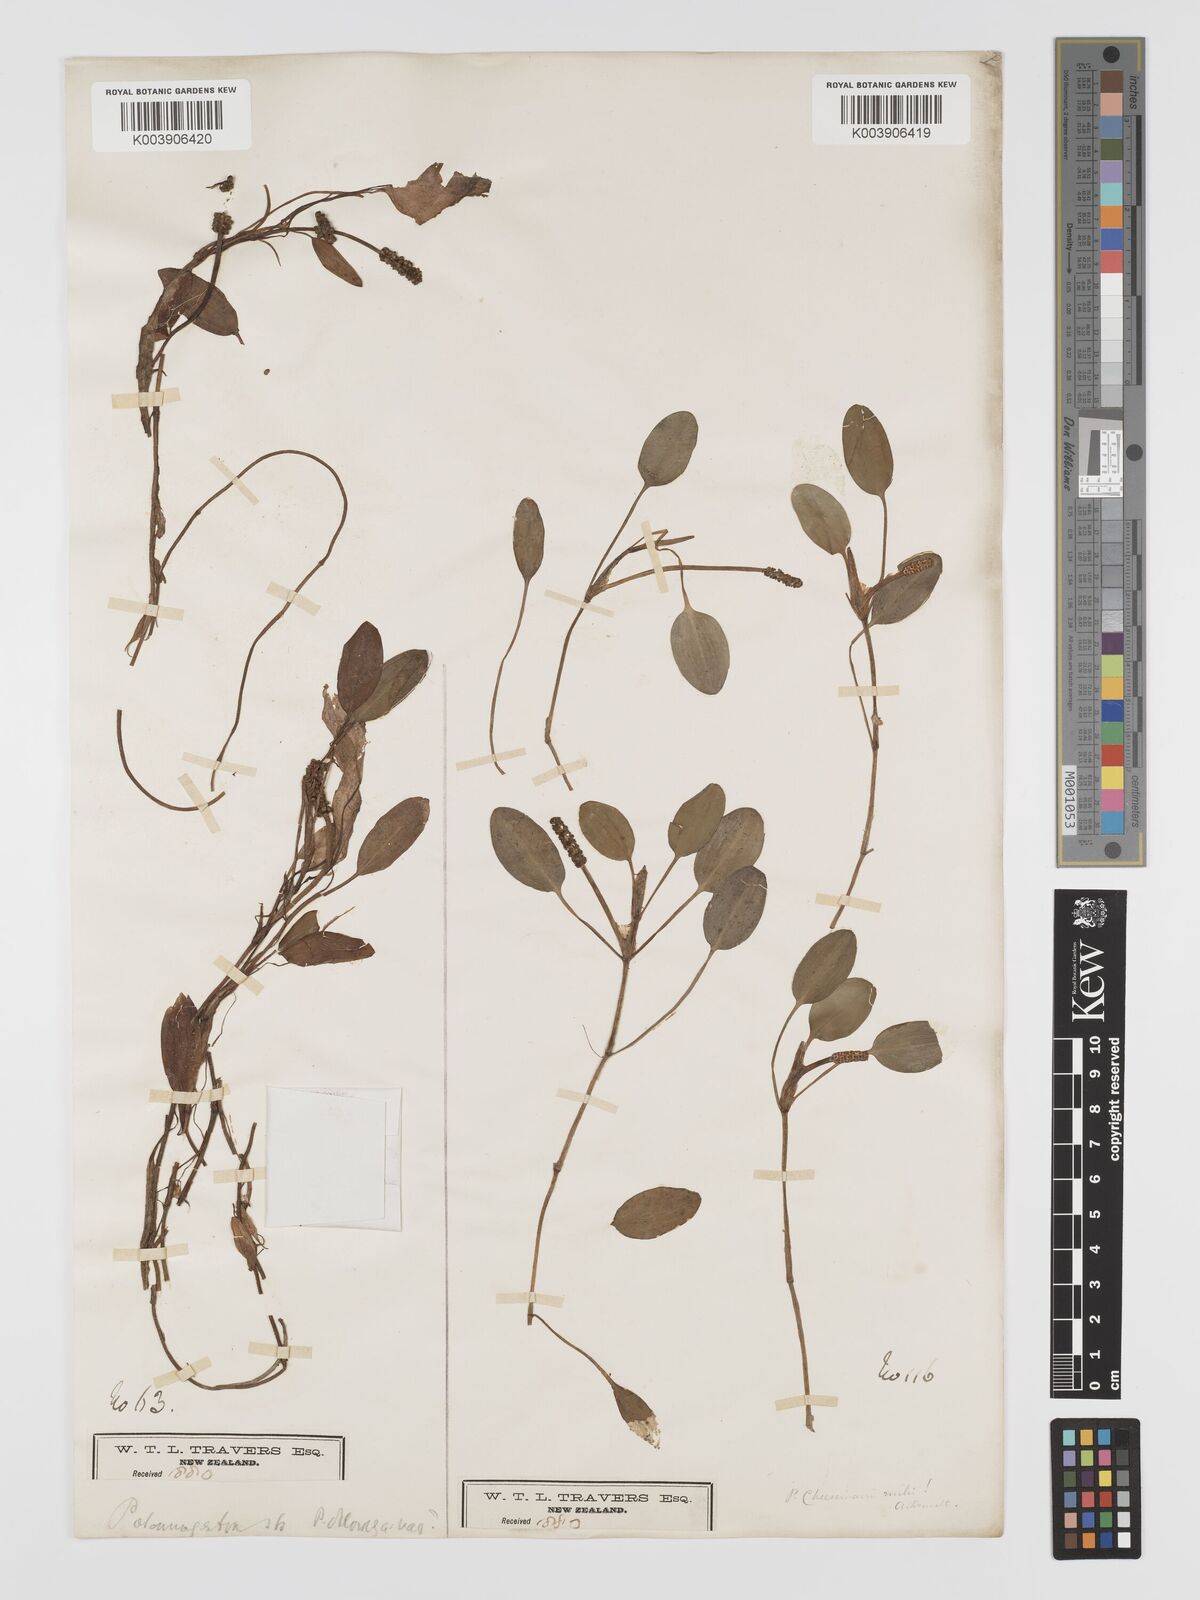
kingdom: Plantae
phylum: Tracheophyta
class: Liliopsida
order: Alismatales
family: Potamogetonaceae
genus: Potamogeton
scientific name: Potamogeton cheesemanii
